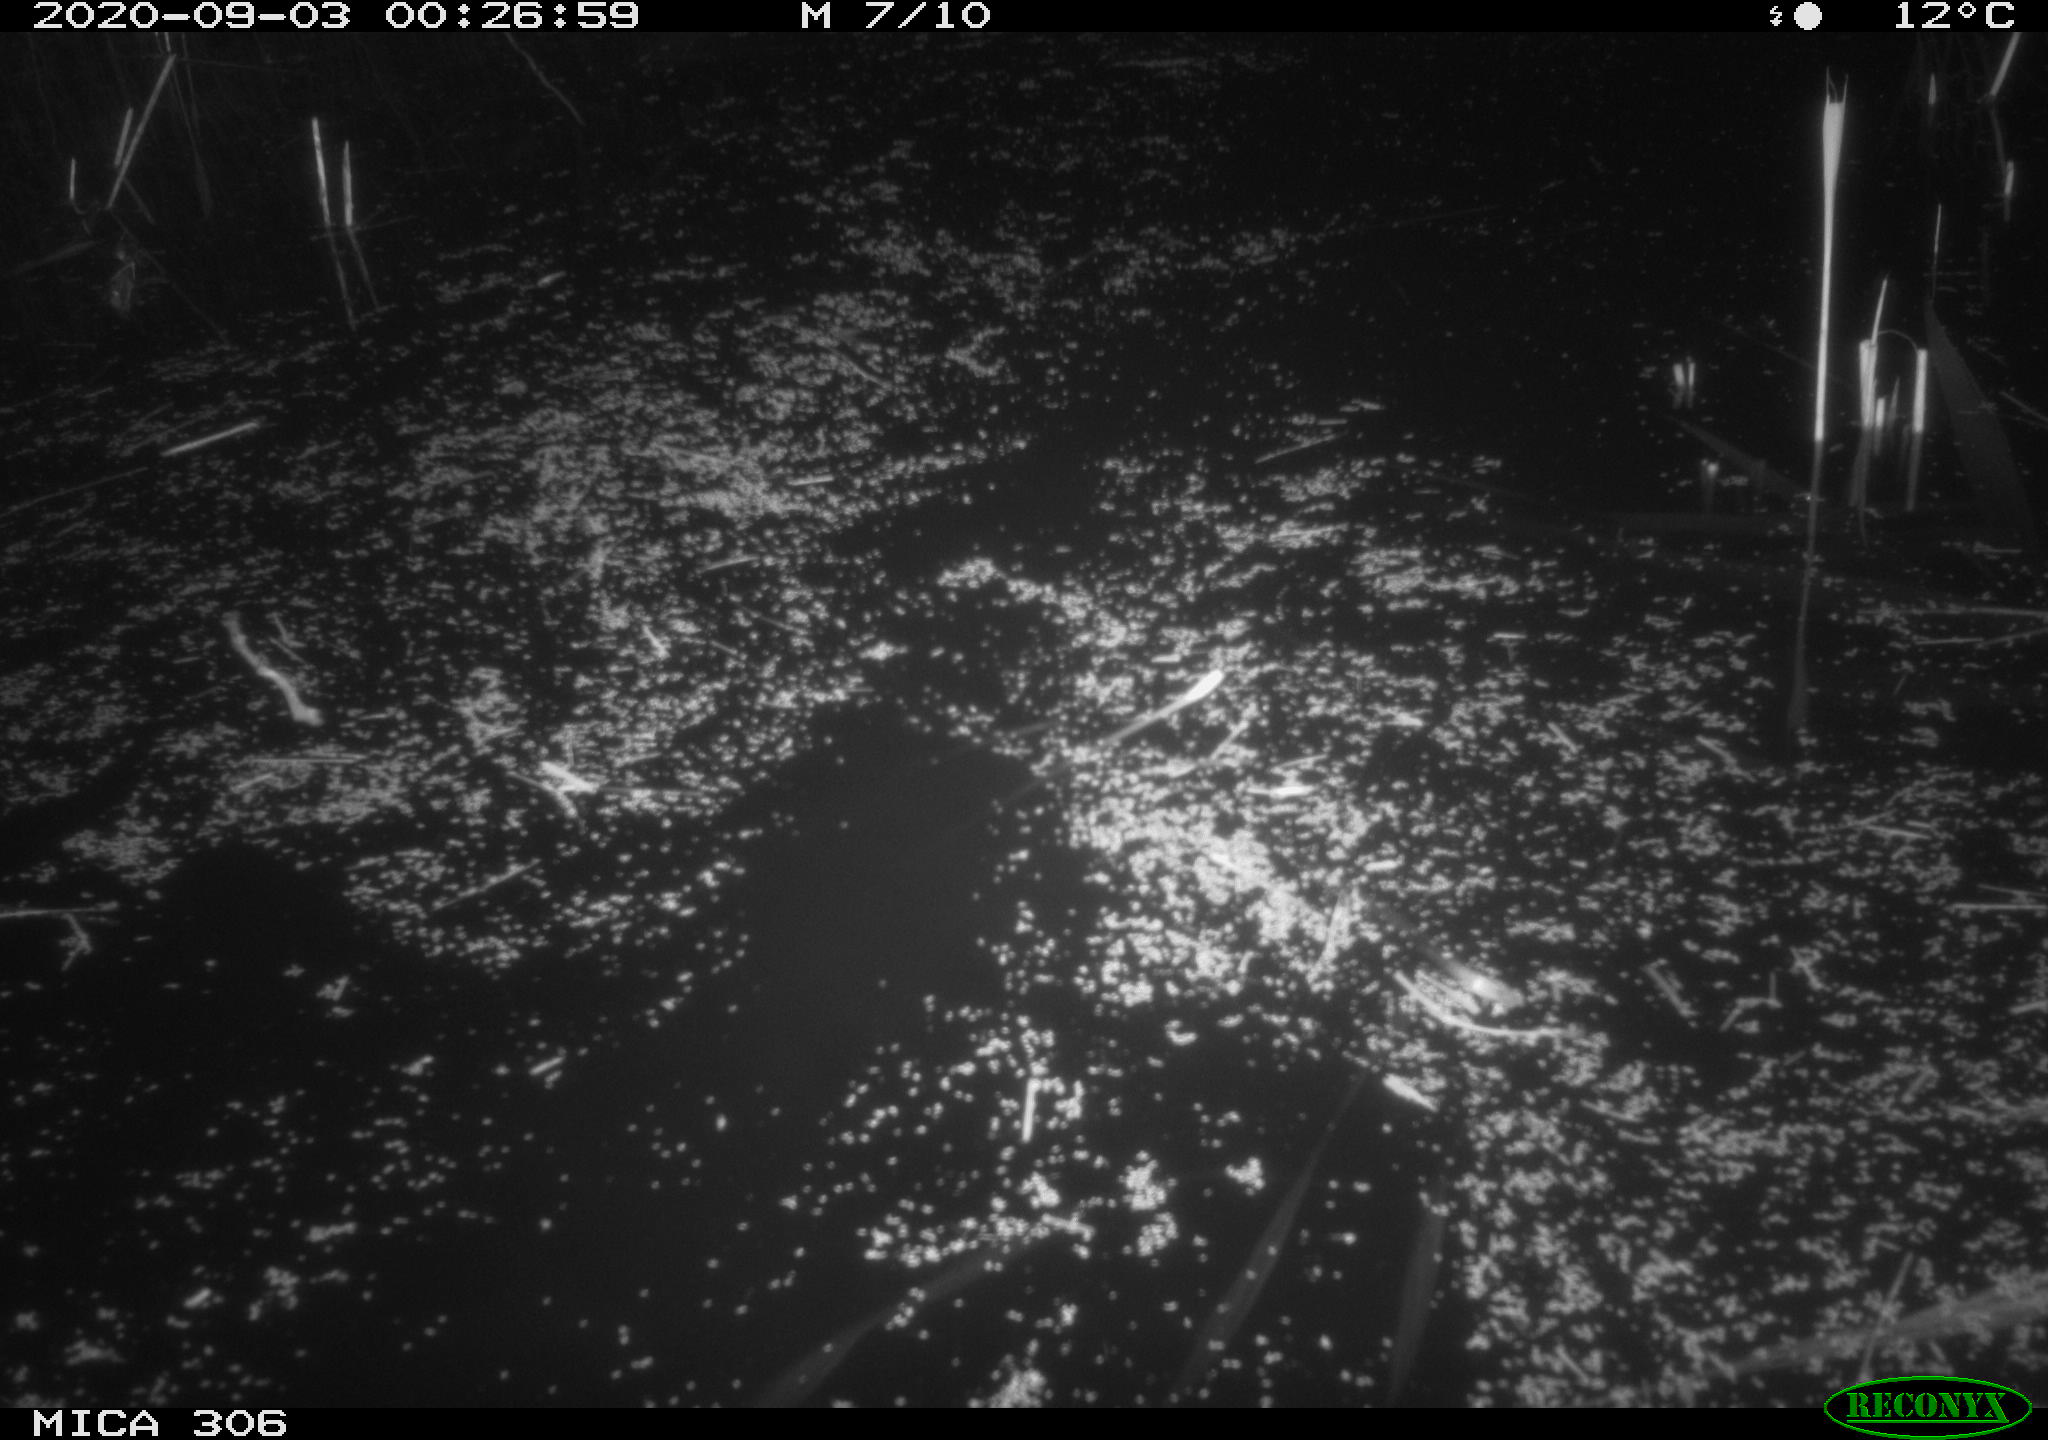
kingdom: Animalia
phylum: Chordata
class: Mammalia
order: Rodentia
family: Cricetidae
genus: Ondatra
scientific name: Ondatra zibethicus
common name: Muskrat
